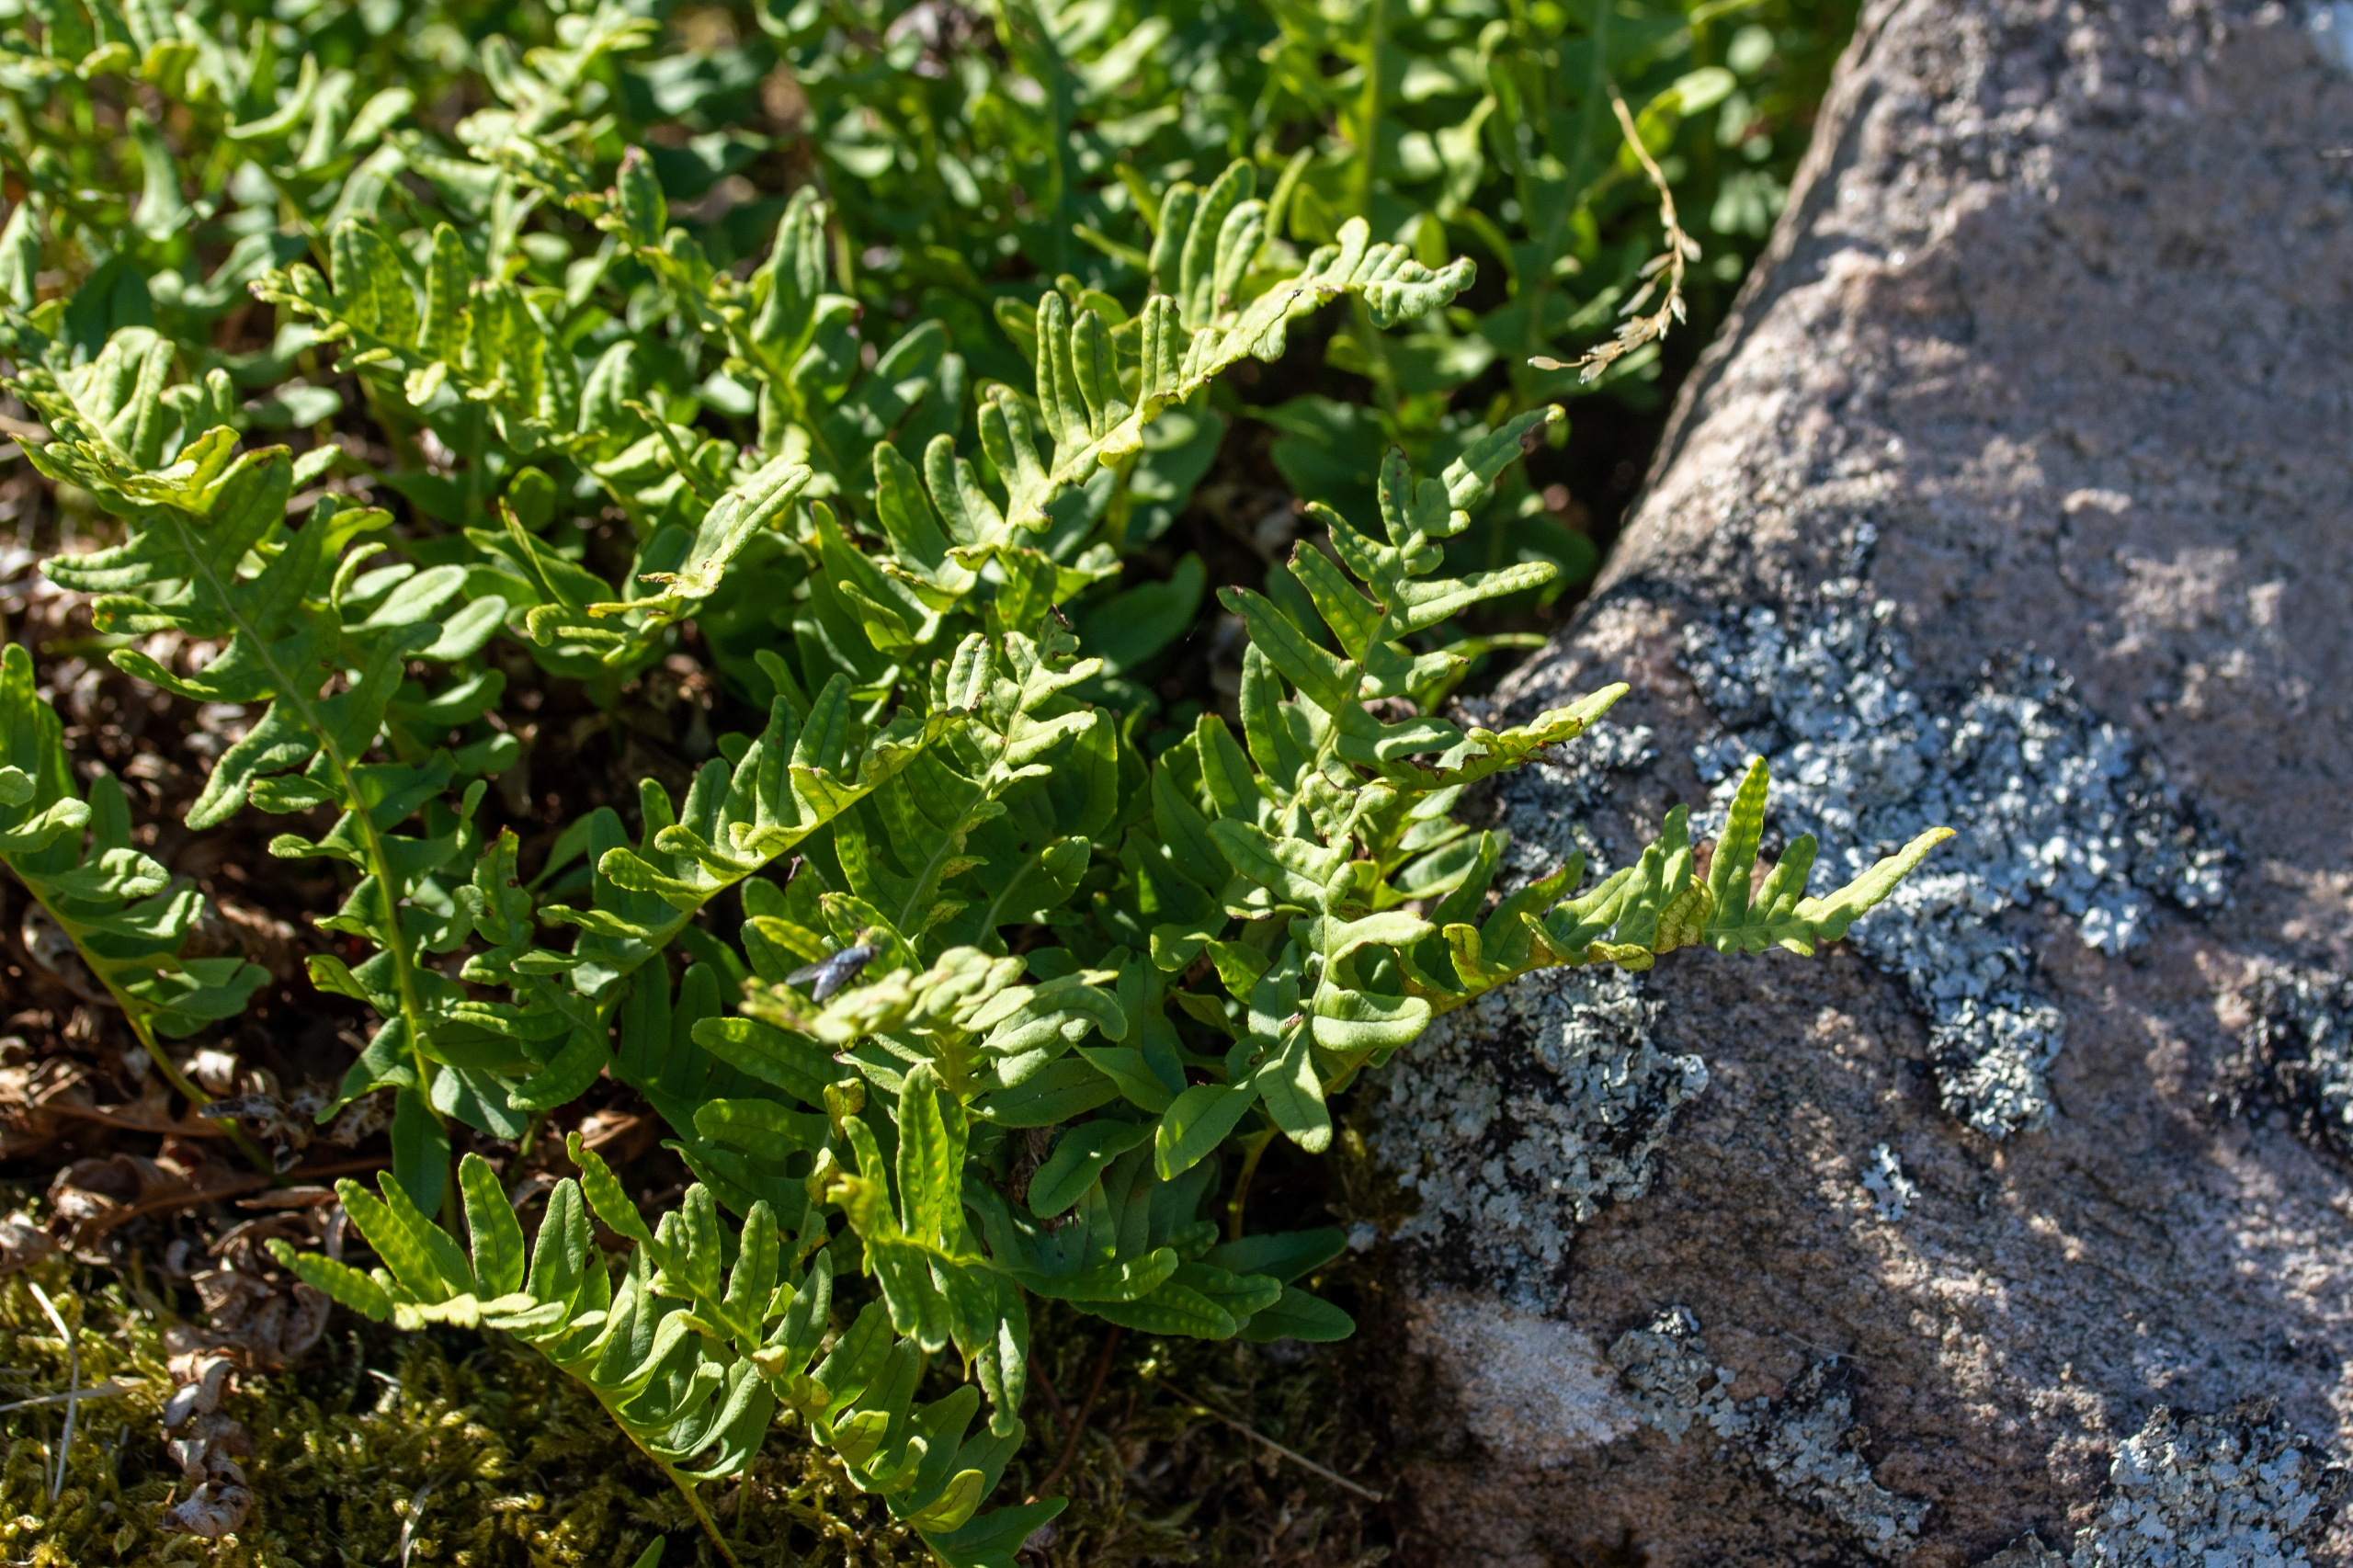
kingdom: Plantae
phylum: Tracheophyta
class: Polypodiopsida
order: Polypodiales
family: Polypodiaceae
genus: Polypodium
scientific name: Polypodium vulgare
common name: Almindelig engelsød
